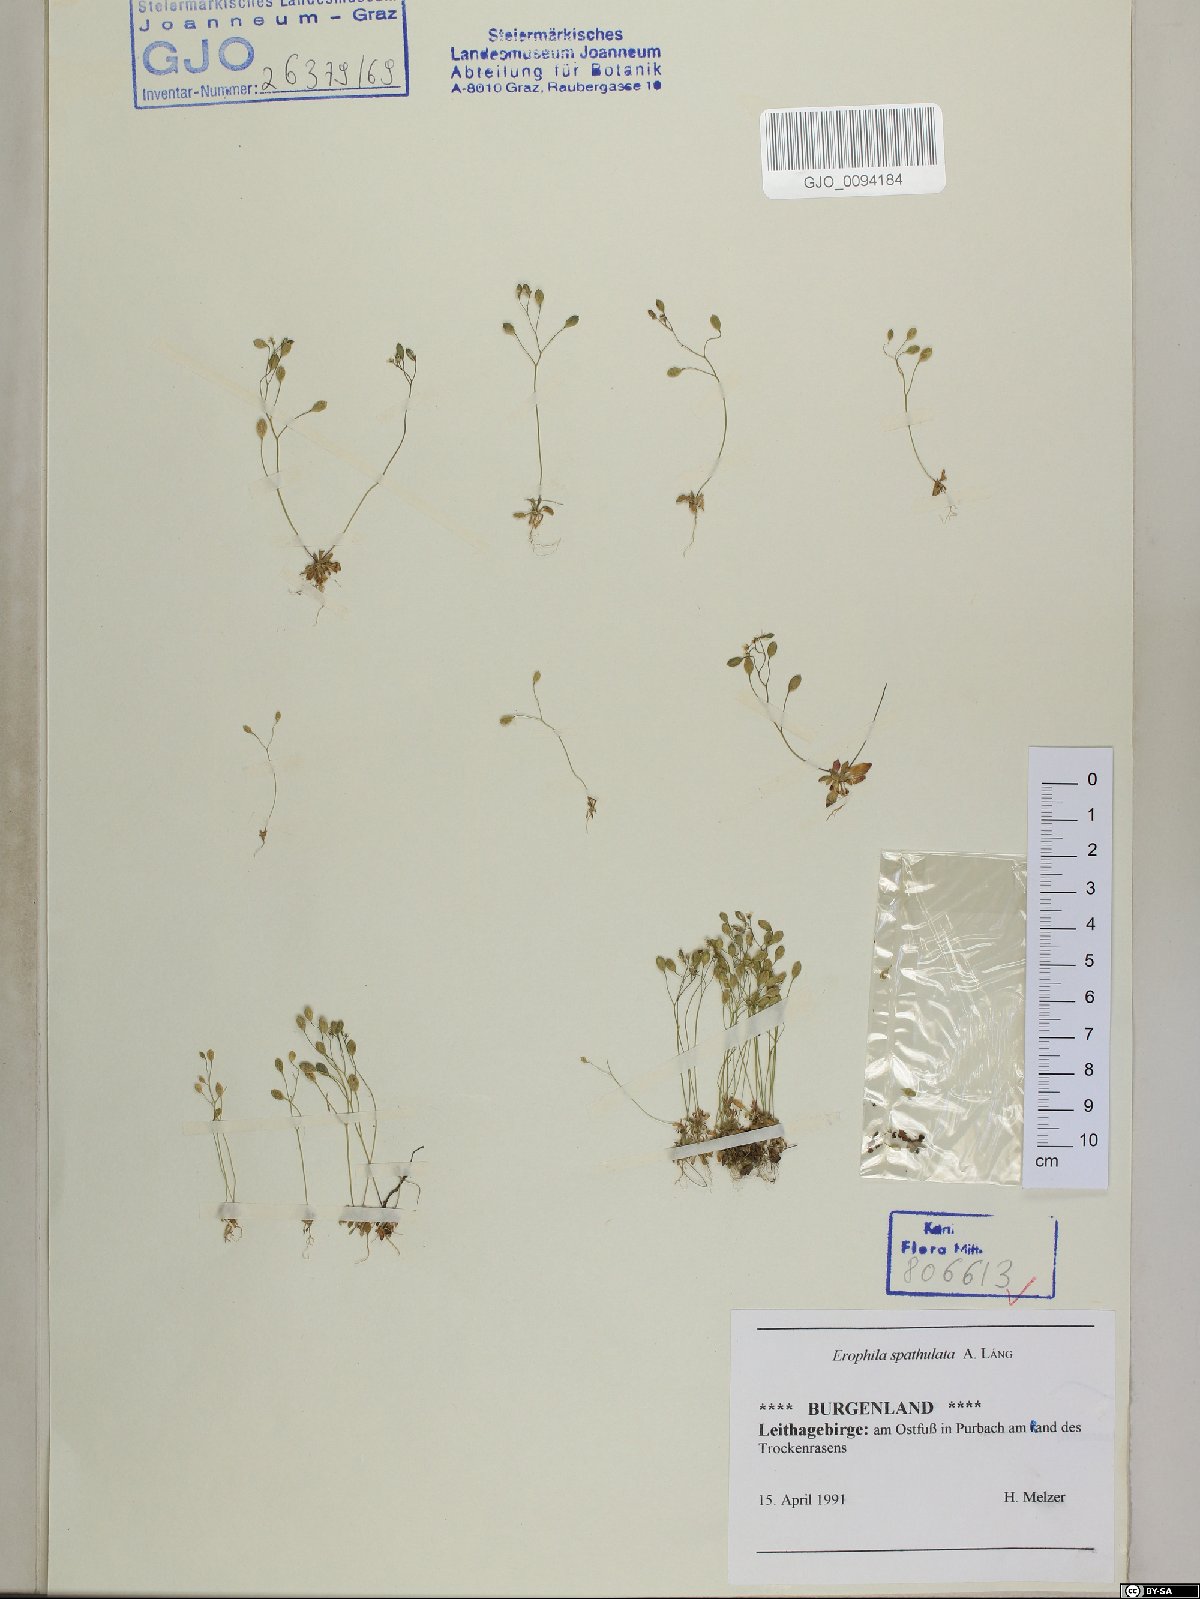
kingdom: Plantae
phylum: Tracheophyta
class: Magnoliopsida
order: Brassicales
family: Brassicaceae
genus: Draba
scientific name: Draba verna
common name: Spring draba
